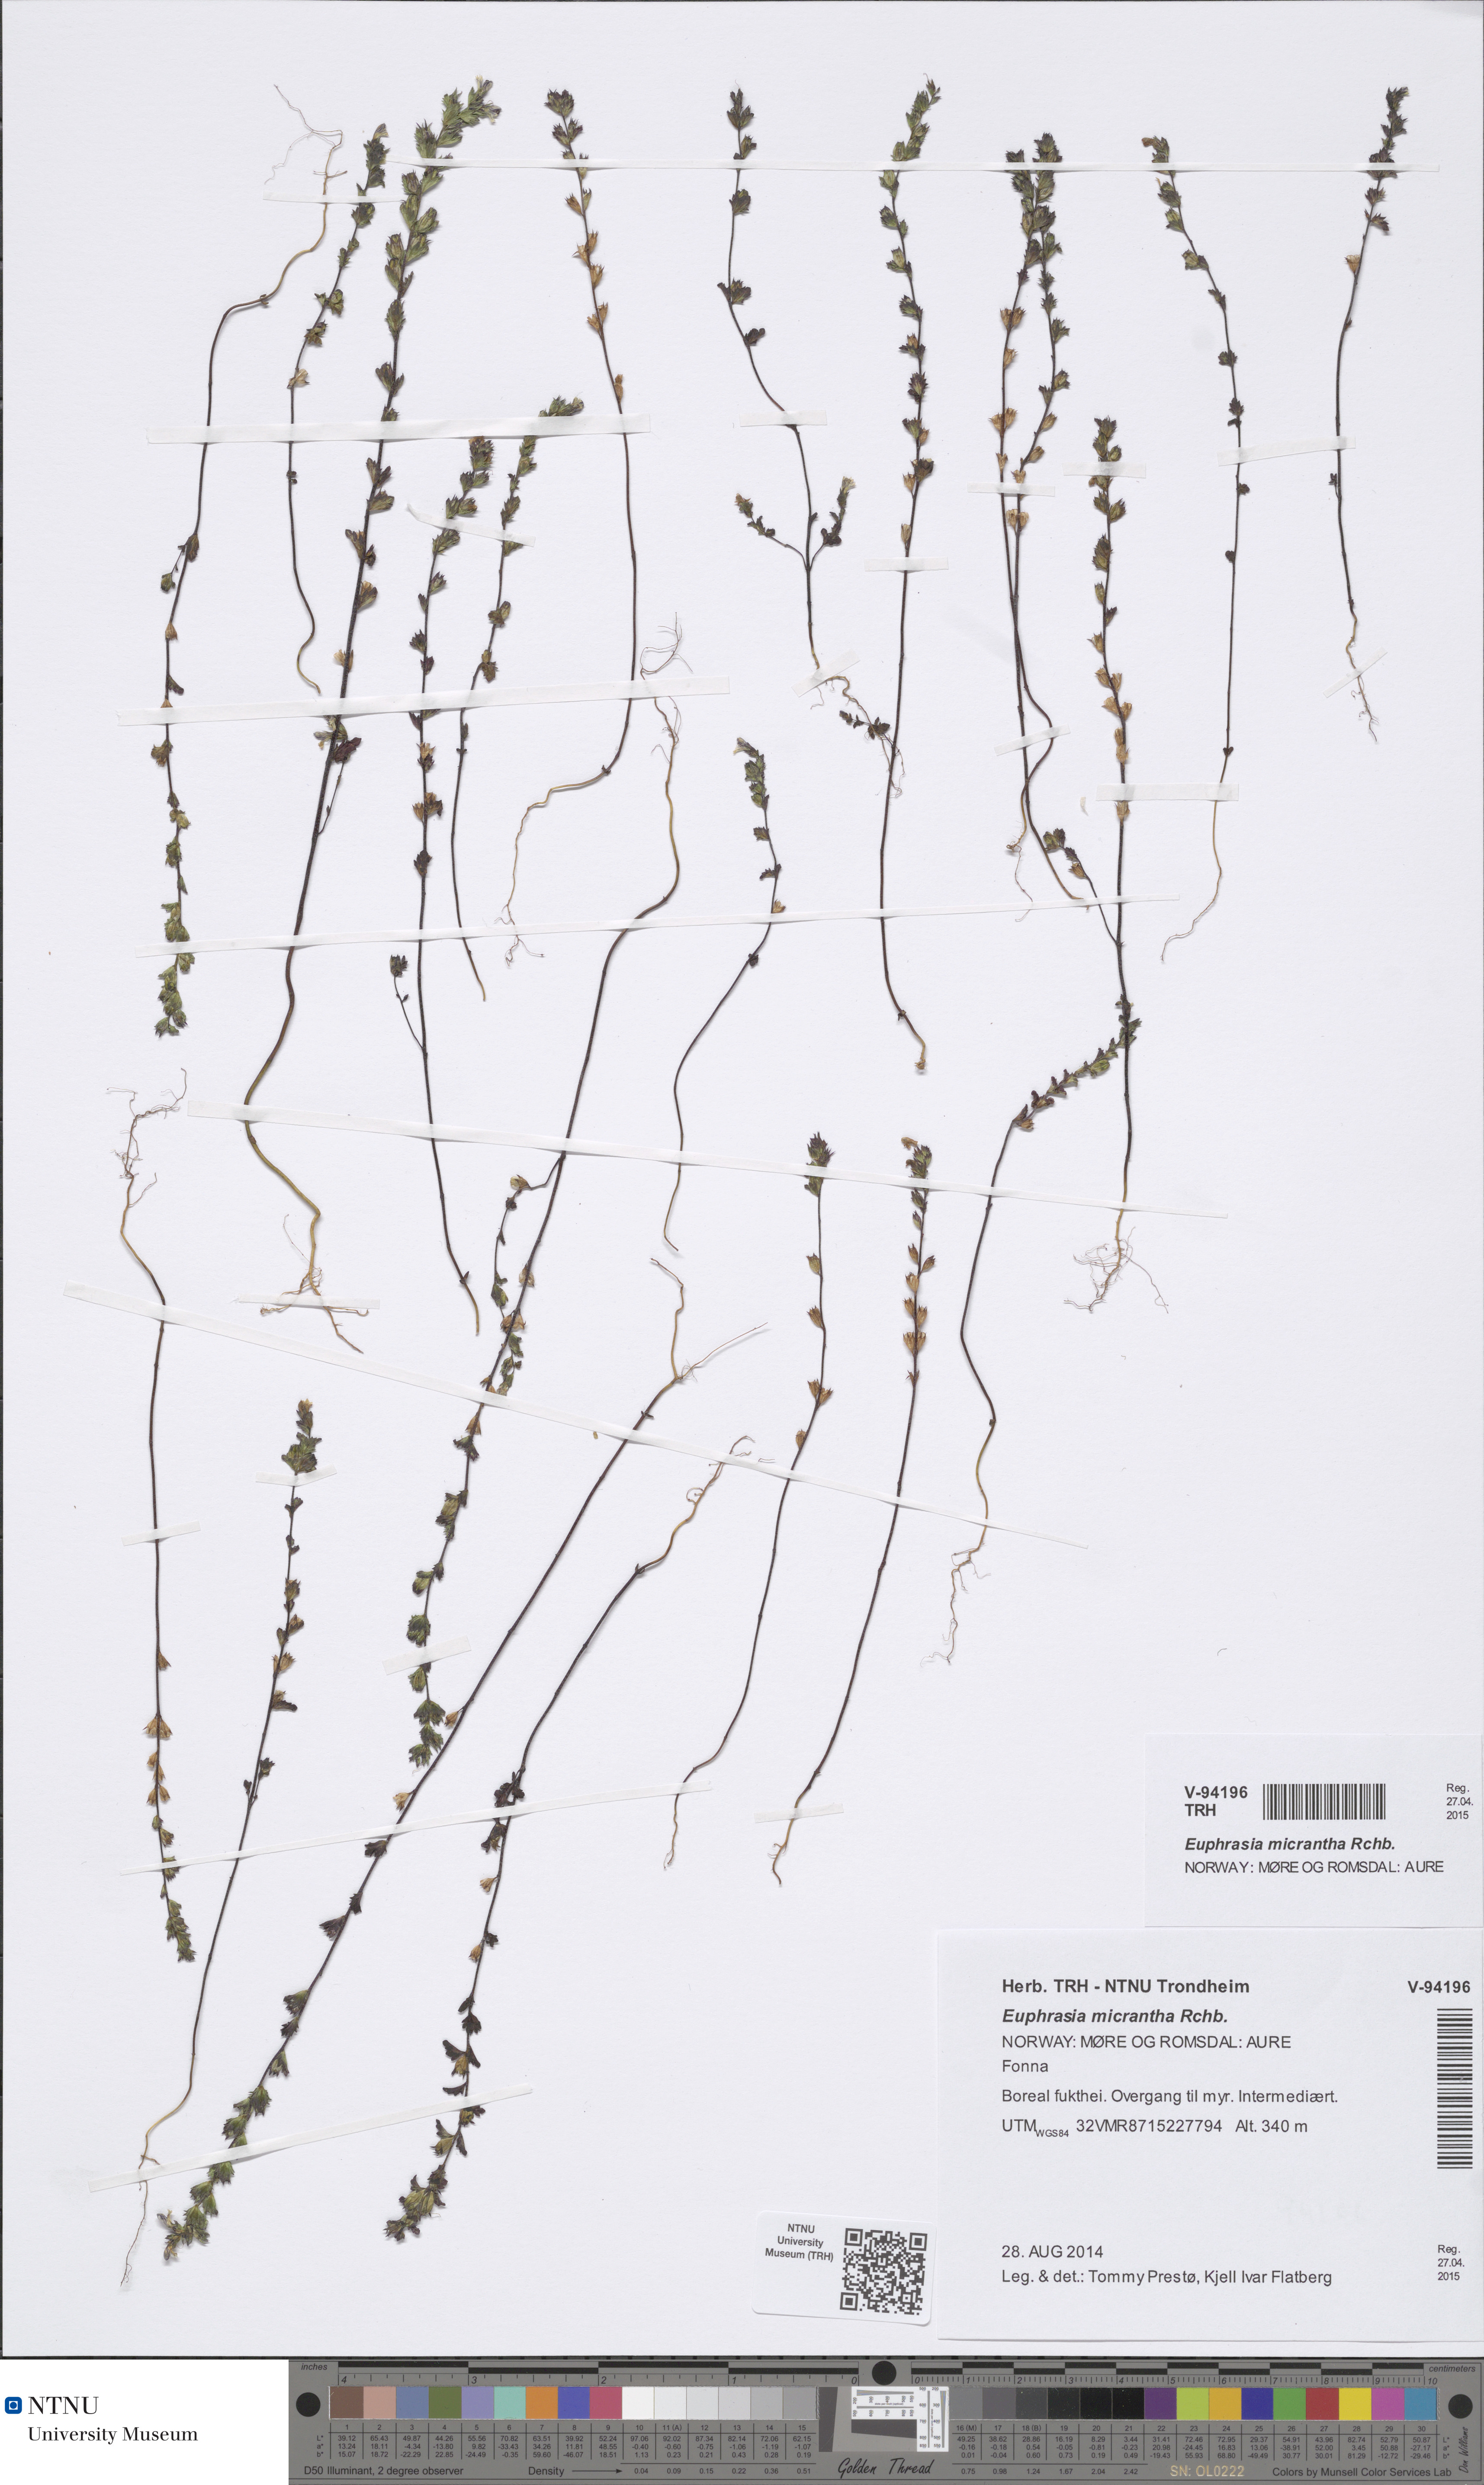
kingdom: Plantae
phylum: Tracheophyta
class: Magnoliopsida
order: Lamiales
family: Orobanchaceae
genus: Euphrasia
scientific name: Euphrasia micrantha
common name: Northern eyebright
